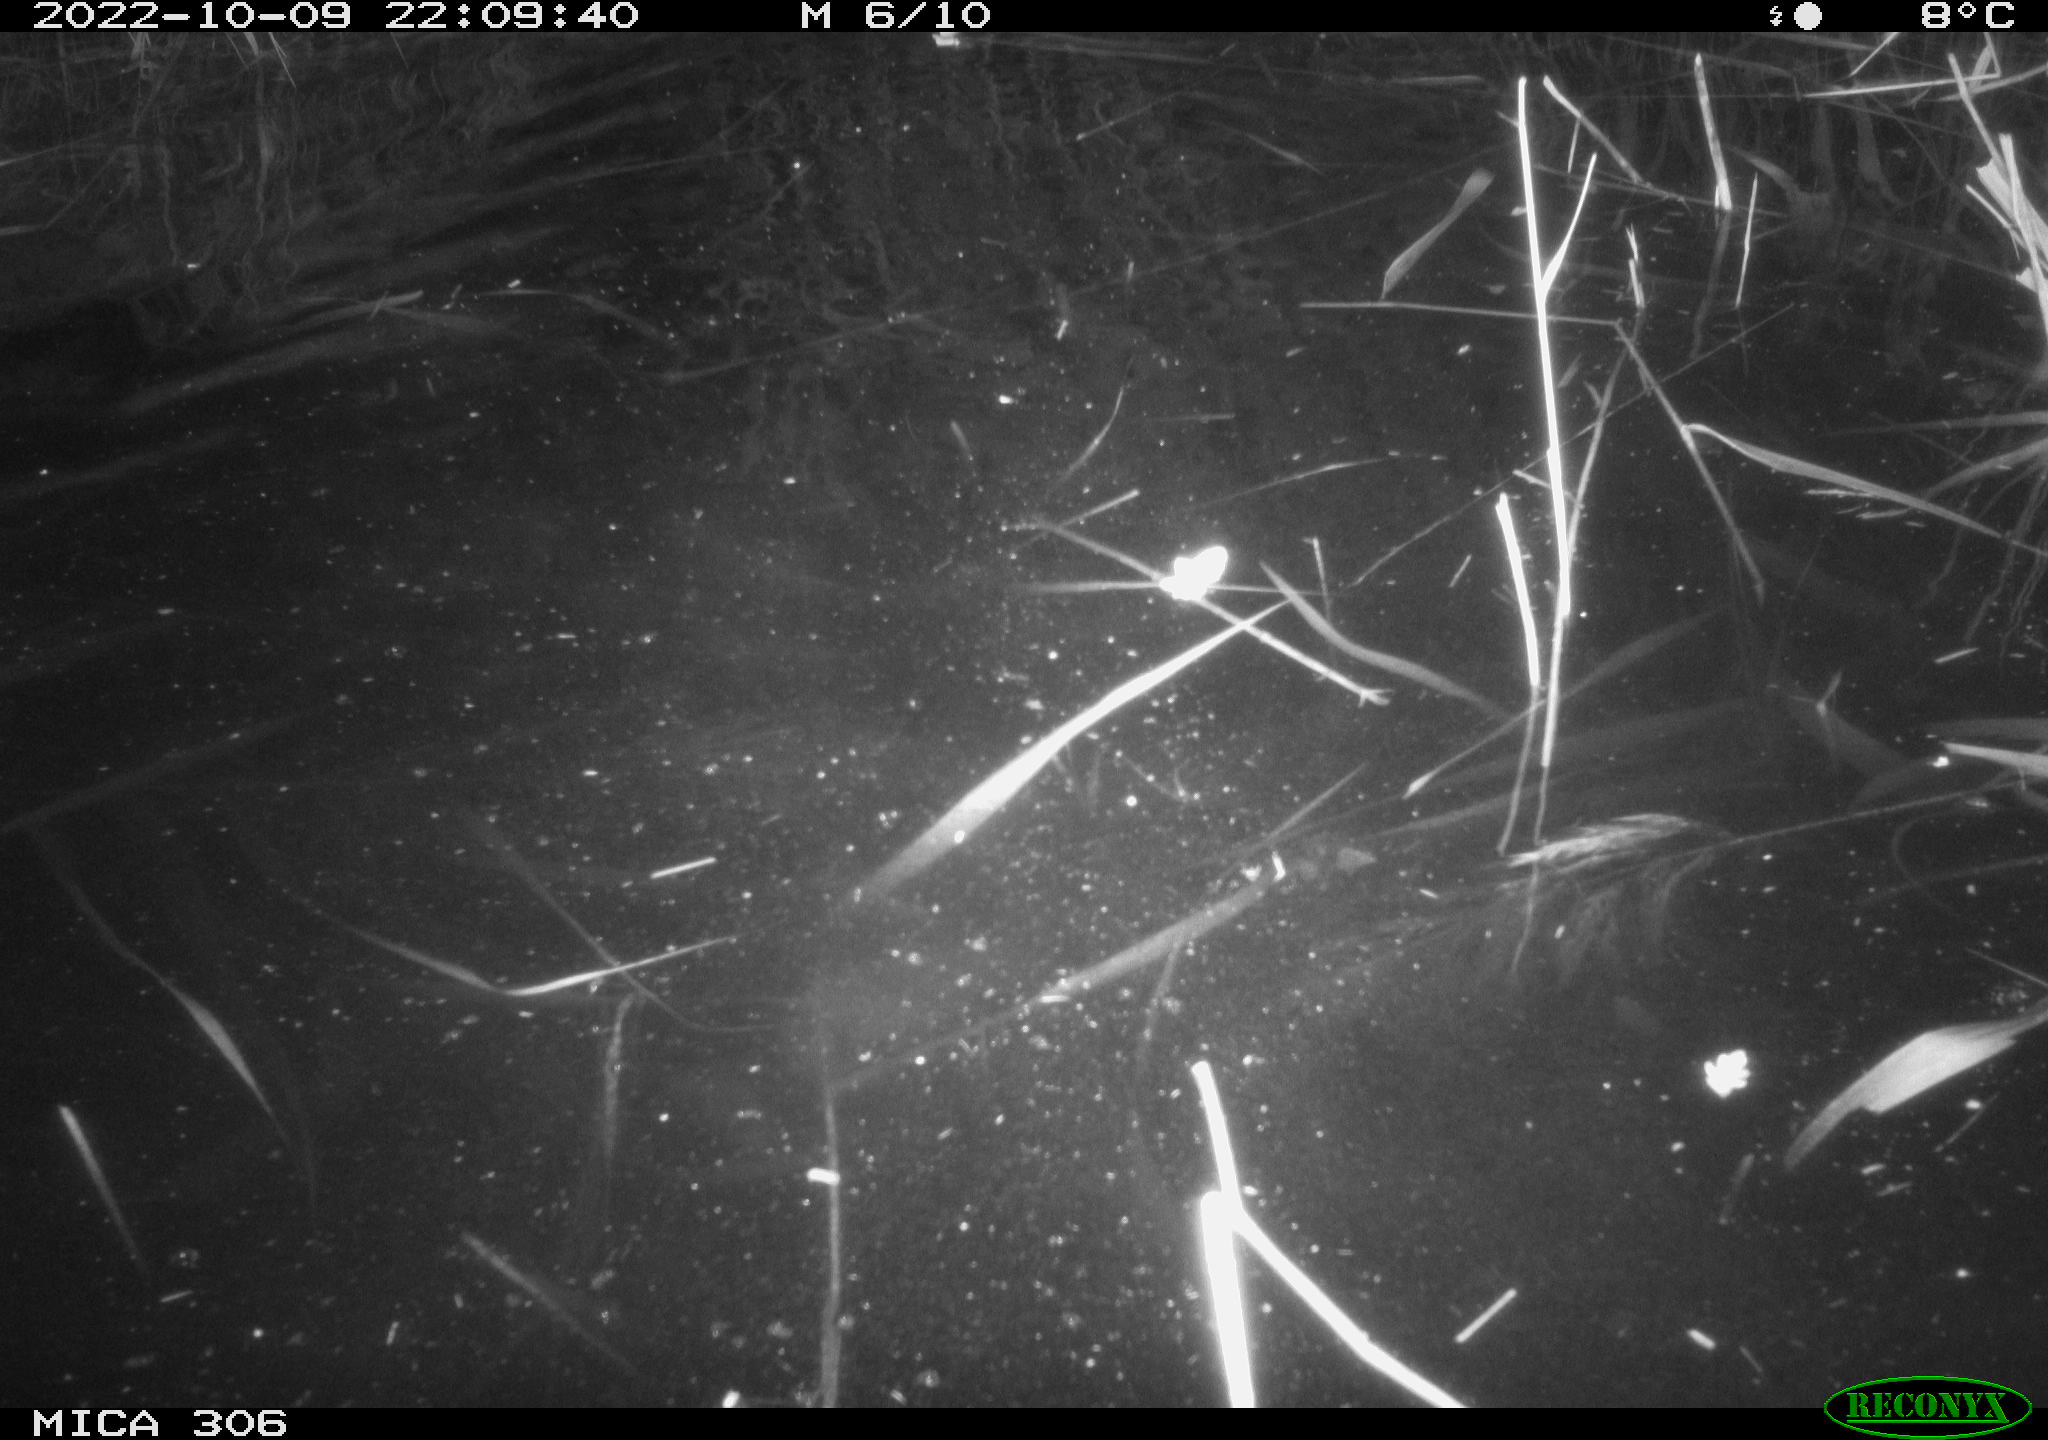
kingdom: Animalia
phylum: Chordata
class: Mammalia
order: Rodentia
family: Muridae
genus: Rattus
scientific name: Rattus norvegicus
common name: Brown rat
